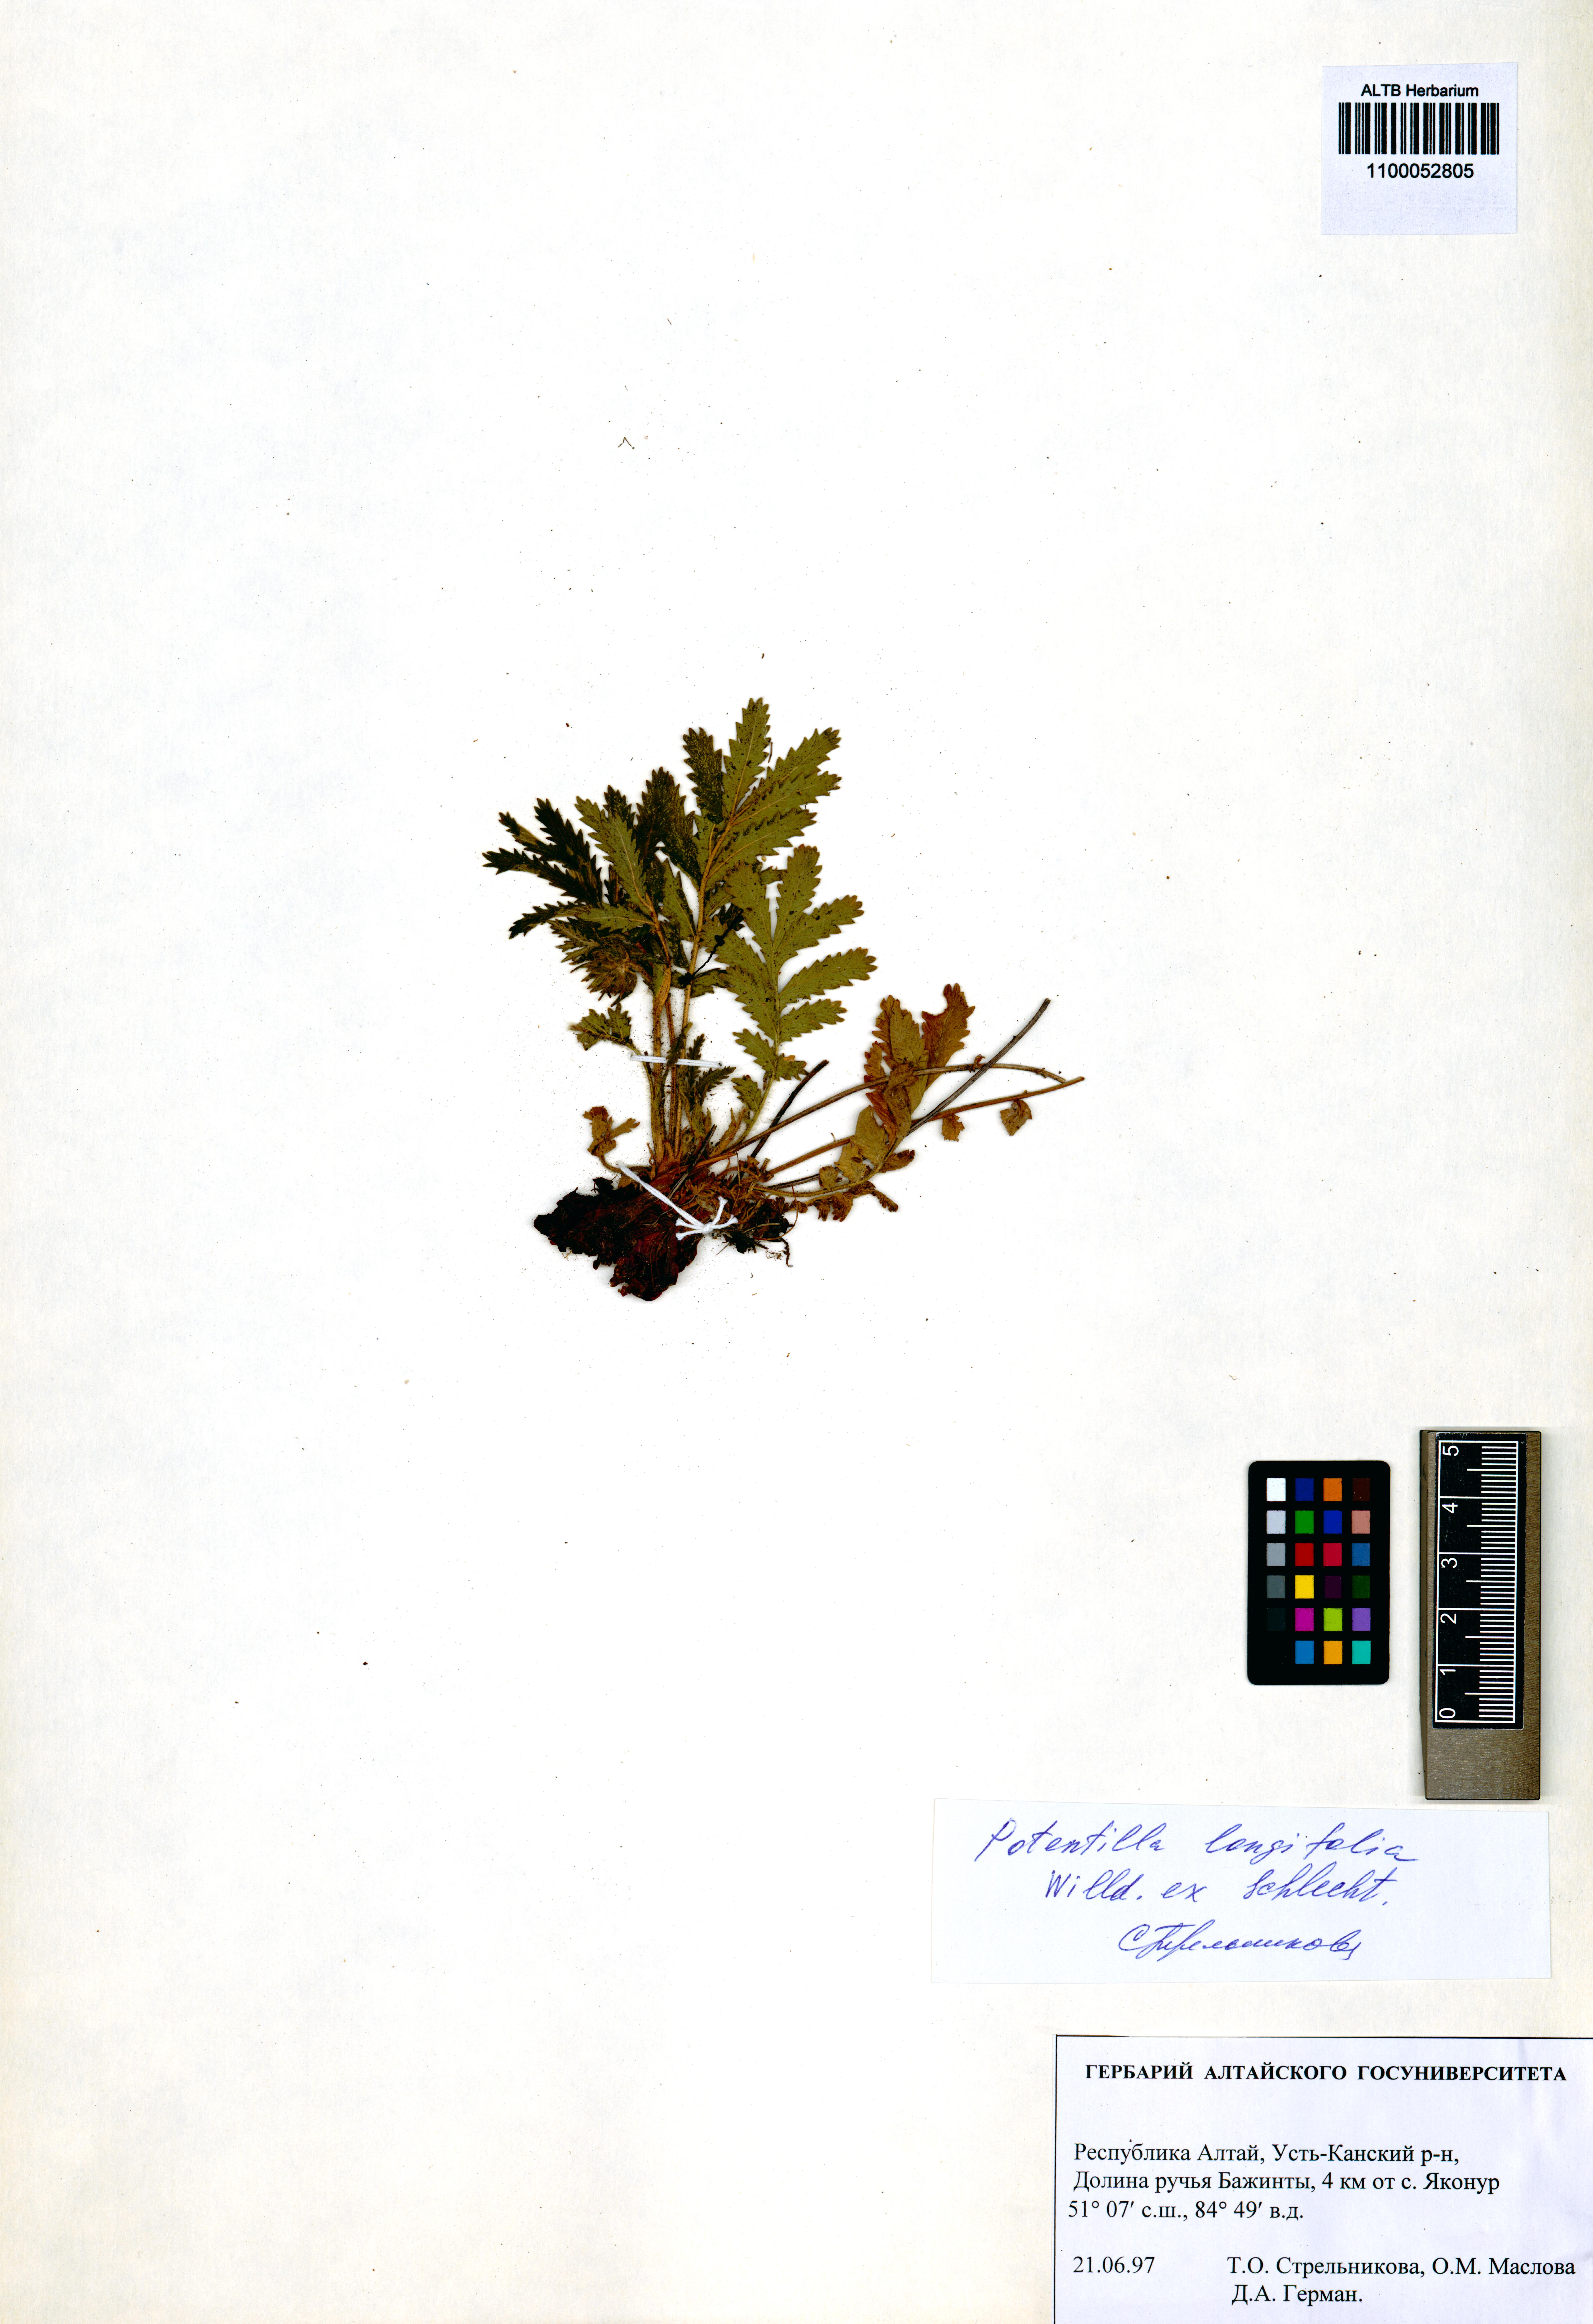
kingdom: Plantae
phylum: Tracheophyta
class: Magnoliopsida
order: Rosales
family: Rosaceae
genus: Potentilla
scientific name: Potentilla longifolia
